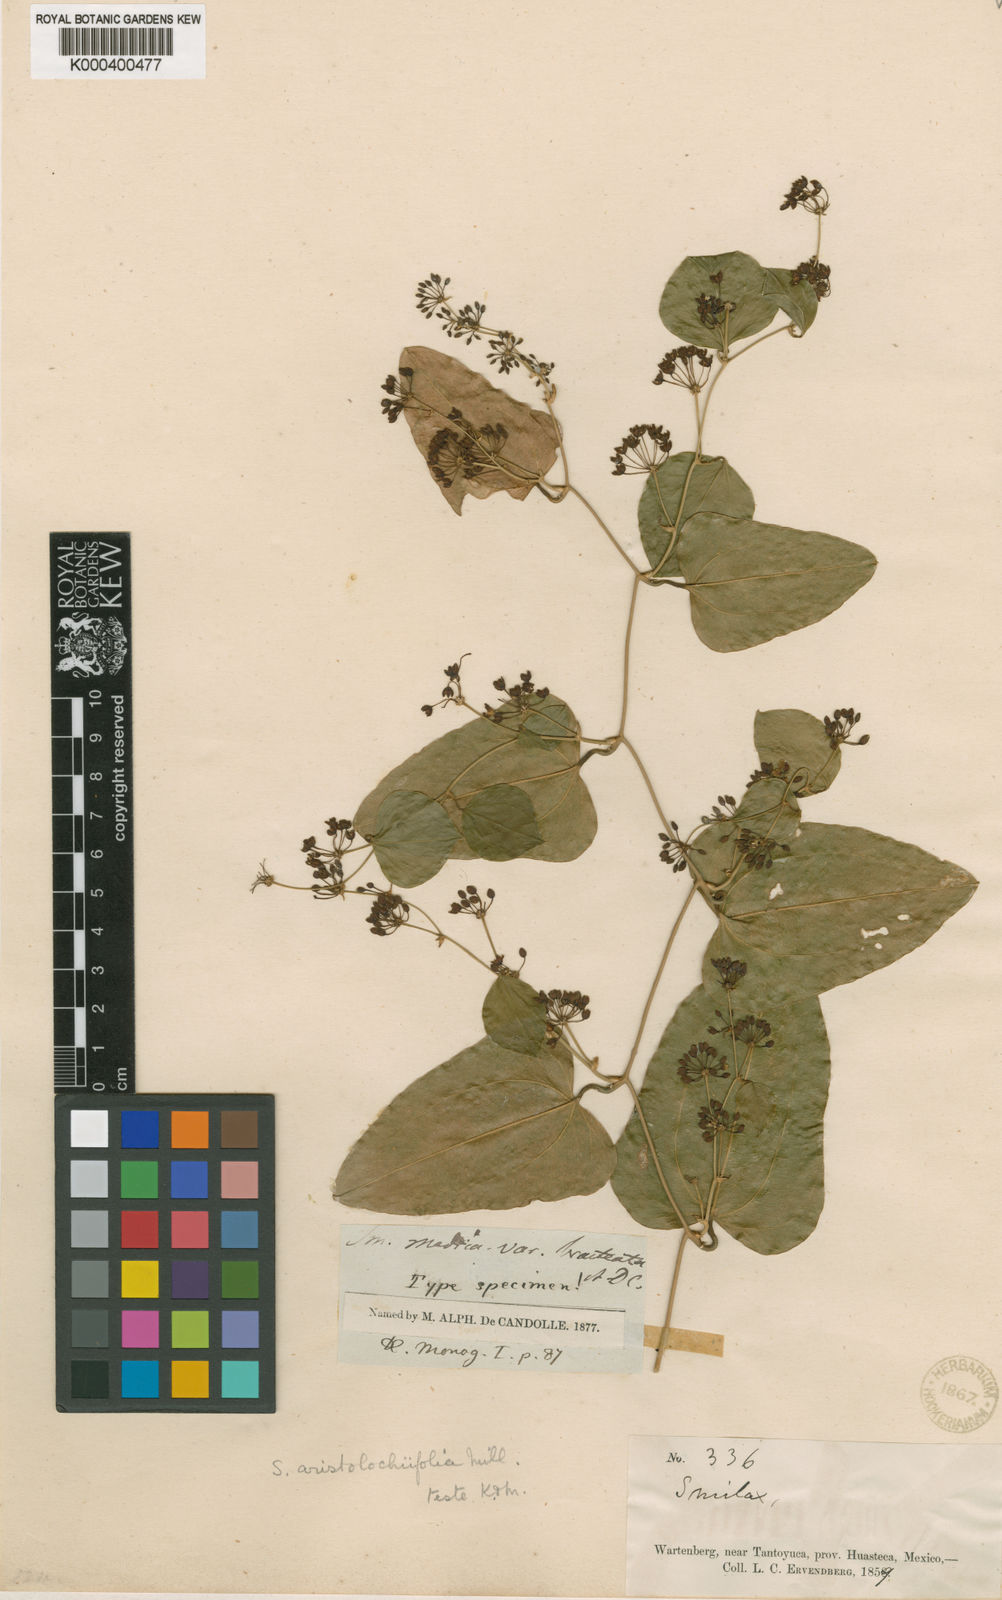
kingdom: Plantae
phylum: Tracheophyta
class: Liliopsida
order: Liliales
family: Smilacaceae
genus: Smilax
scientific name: Smilax aristolochiifolia
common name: Sarsaparilla
